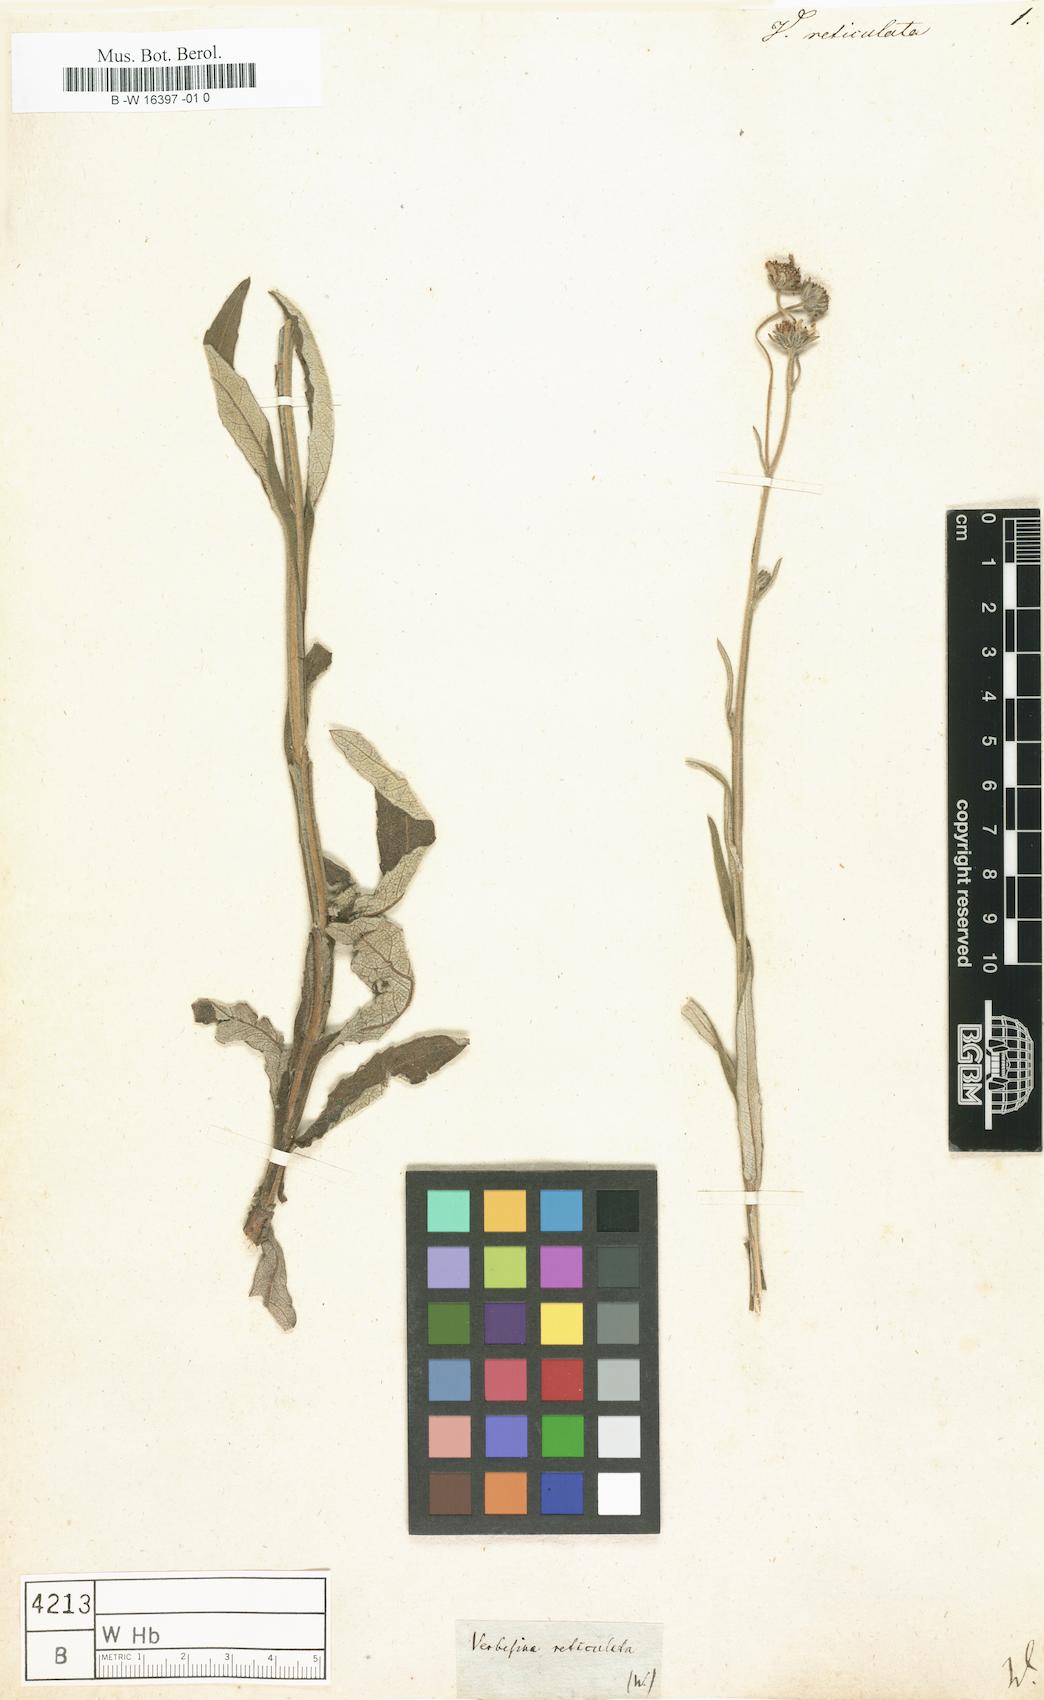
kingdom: Plantae
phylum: Tracheophyta
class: Magnoliopsida
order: Asterales
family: Asteraceae
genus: Wedelia
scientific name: Wedelia rugosa
